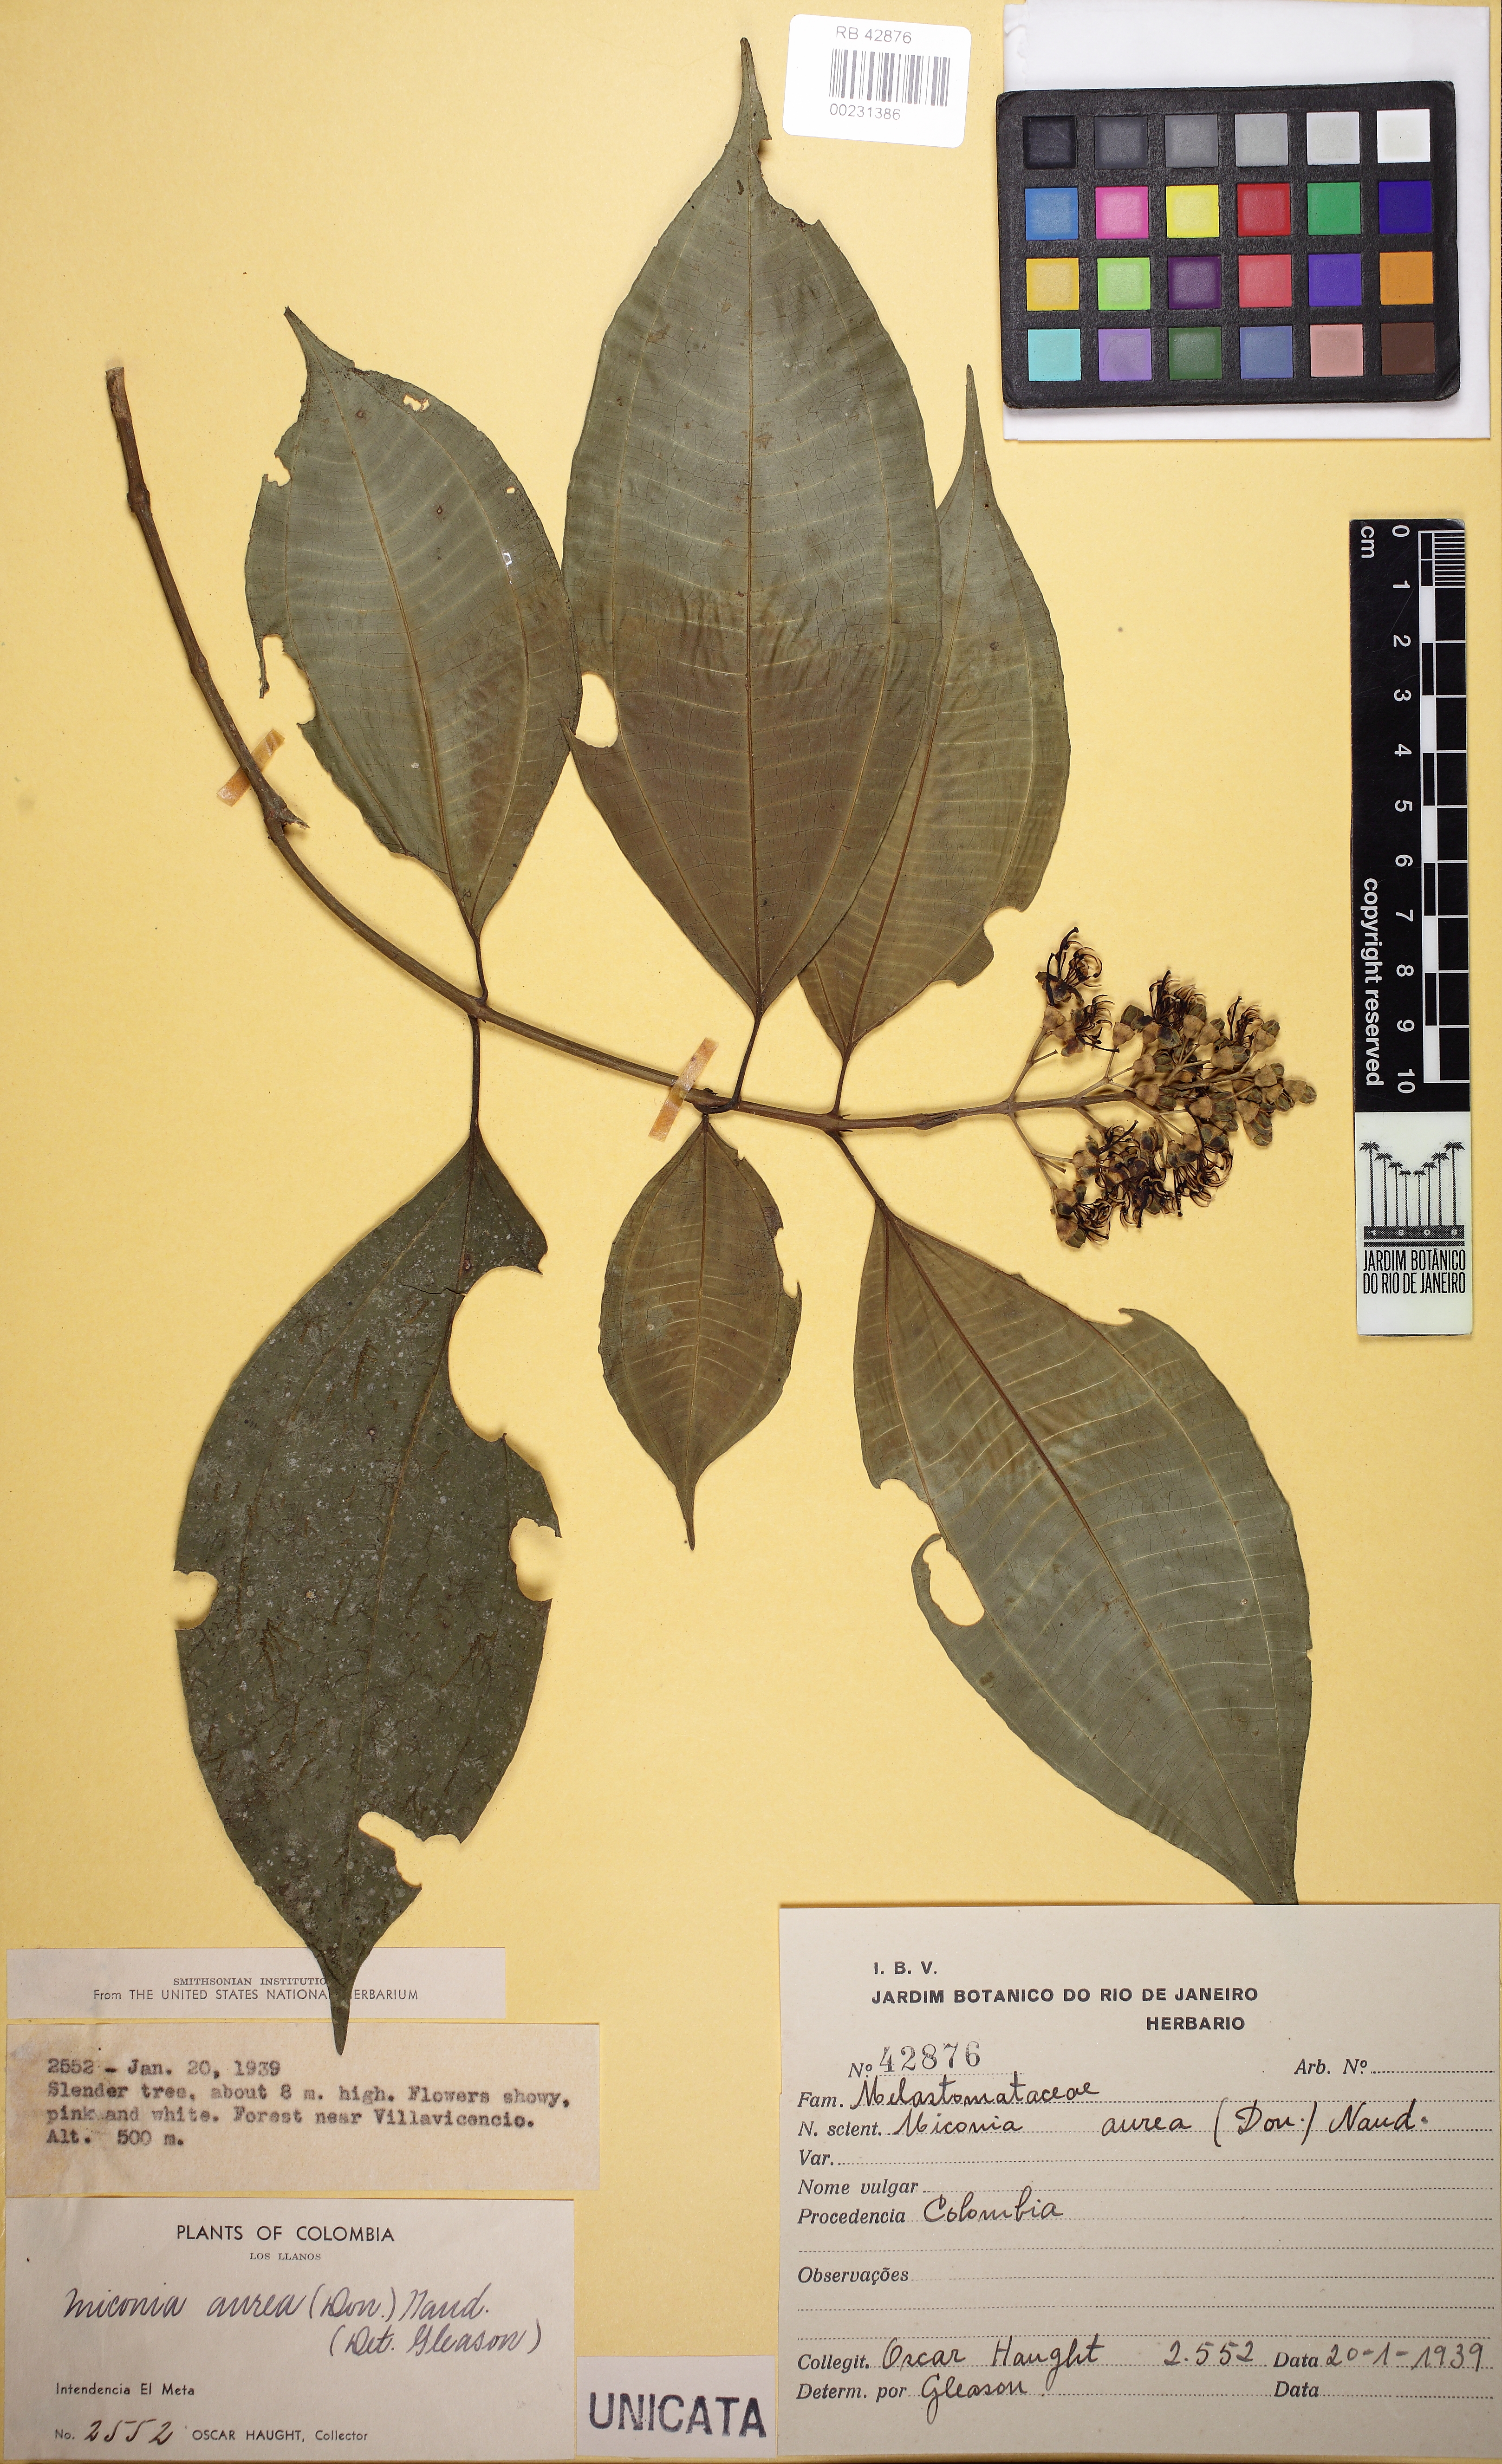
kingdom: Plantae
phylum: Tracheophyta
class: Magnoliopsida
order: Myrtales
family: Melastomataceae
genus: Miconia
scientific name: Miconia aurea
